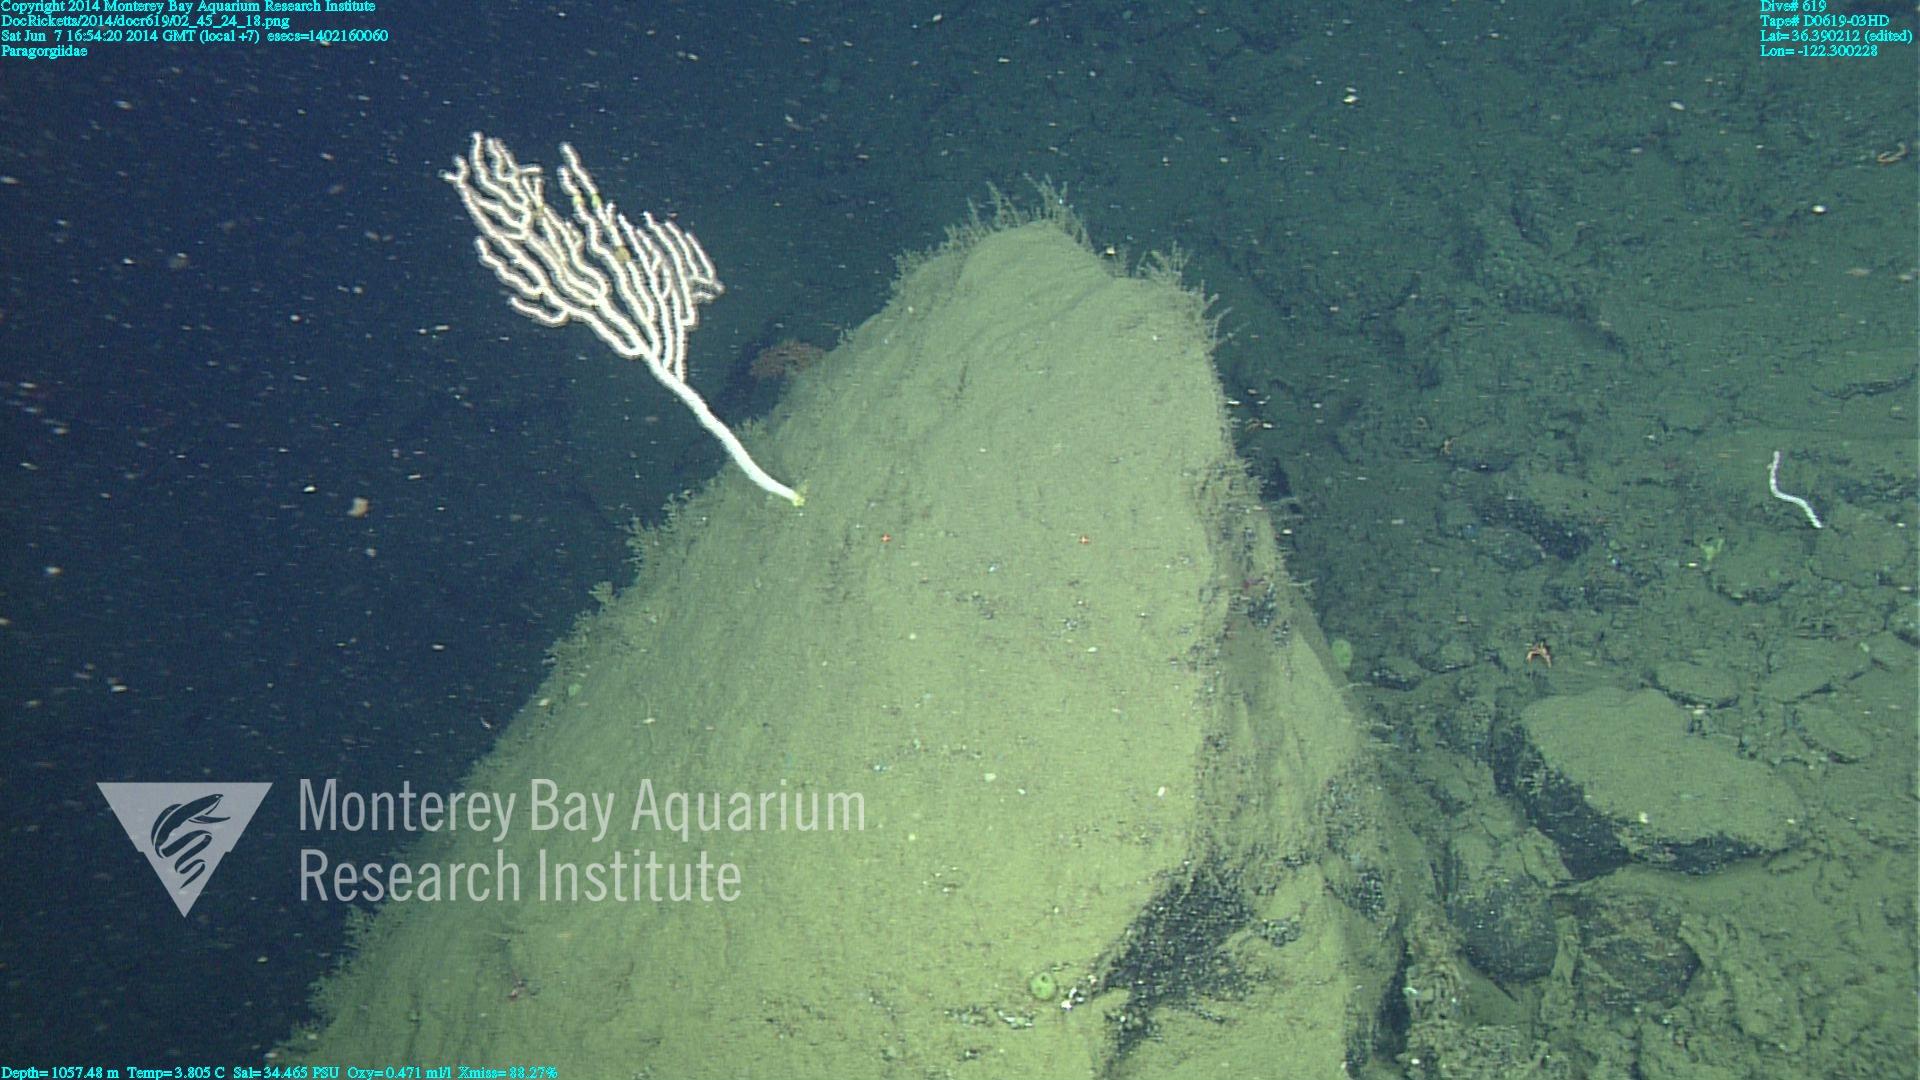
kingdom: Animalia
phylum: Cnidaria
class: Anthozoa
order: Scleralcyonacea
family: Coralliidae
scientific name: Coralliidae
